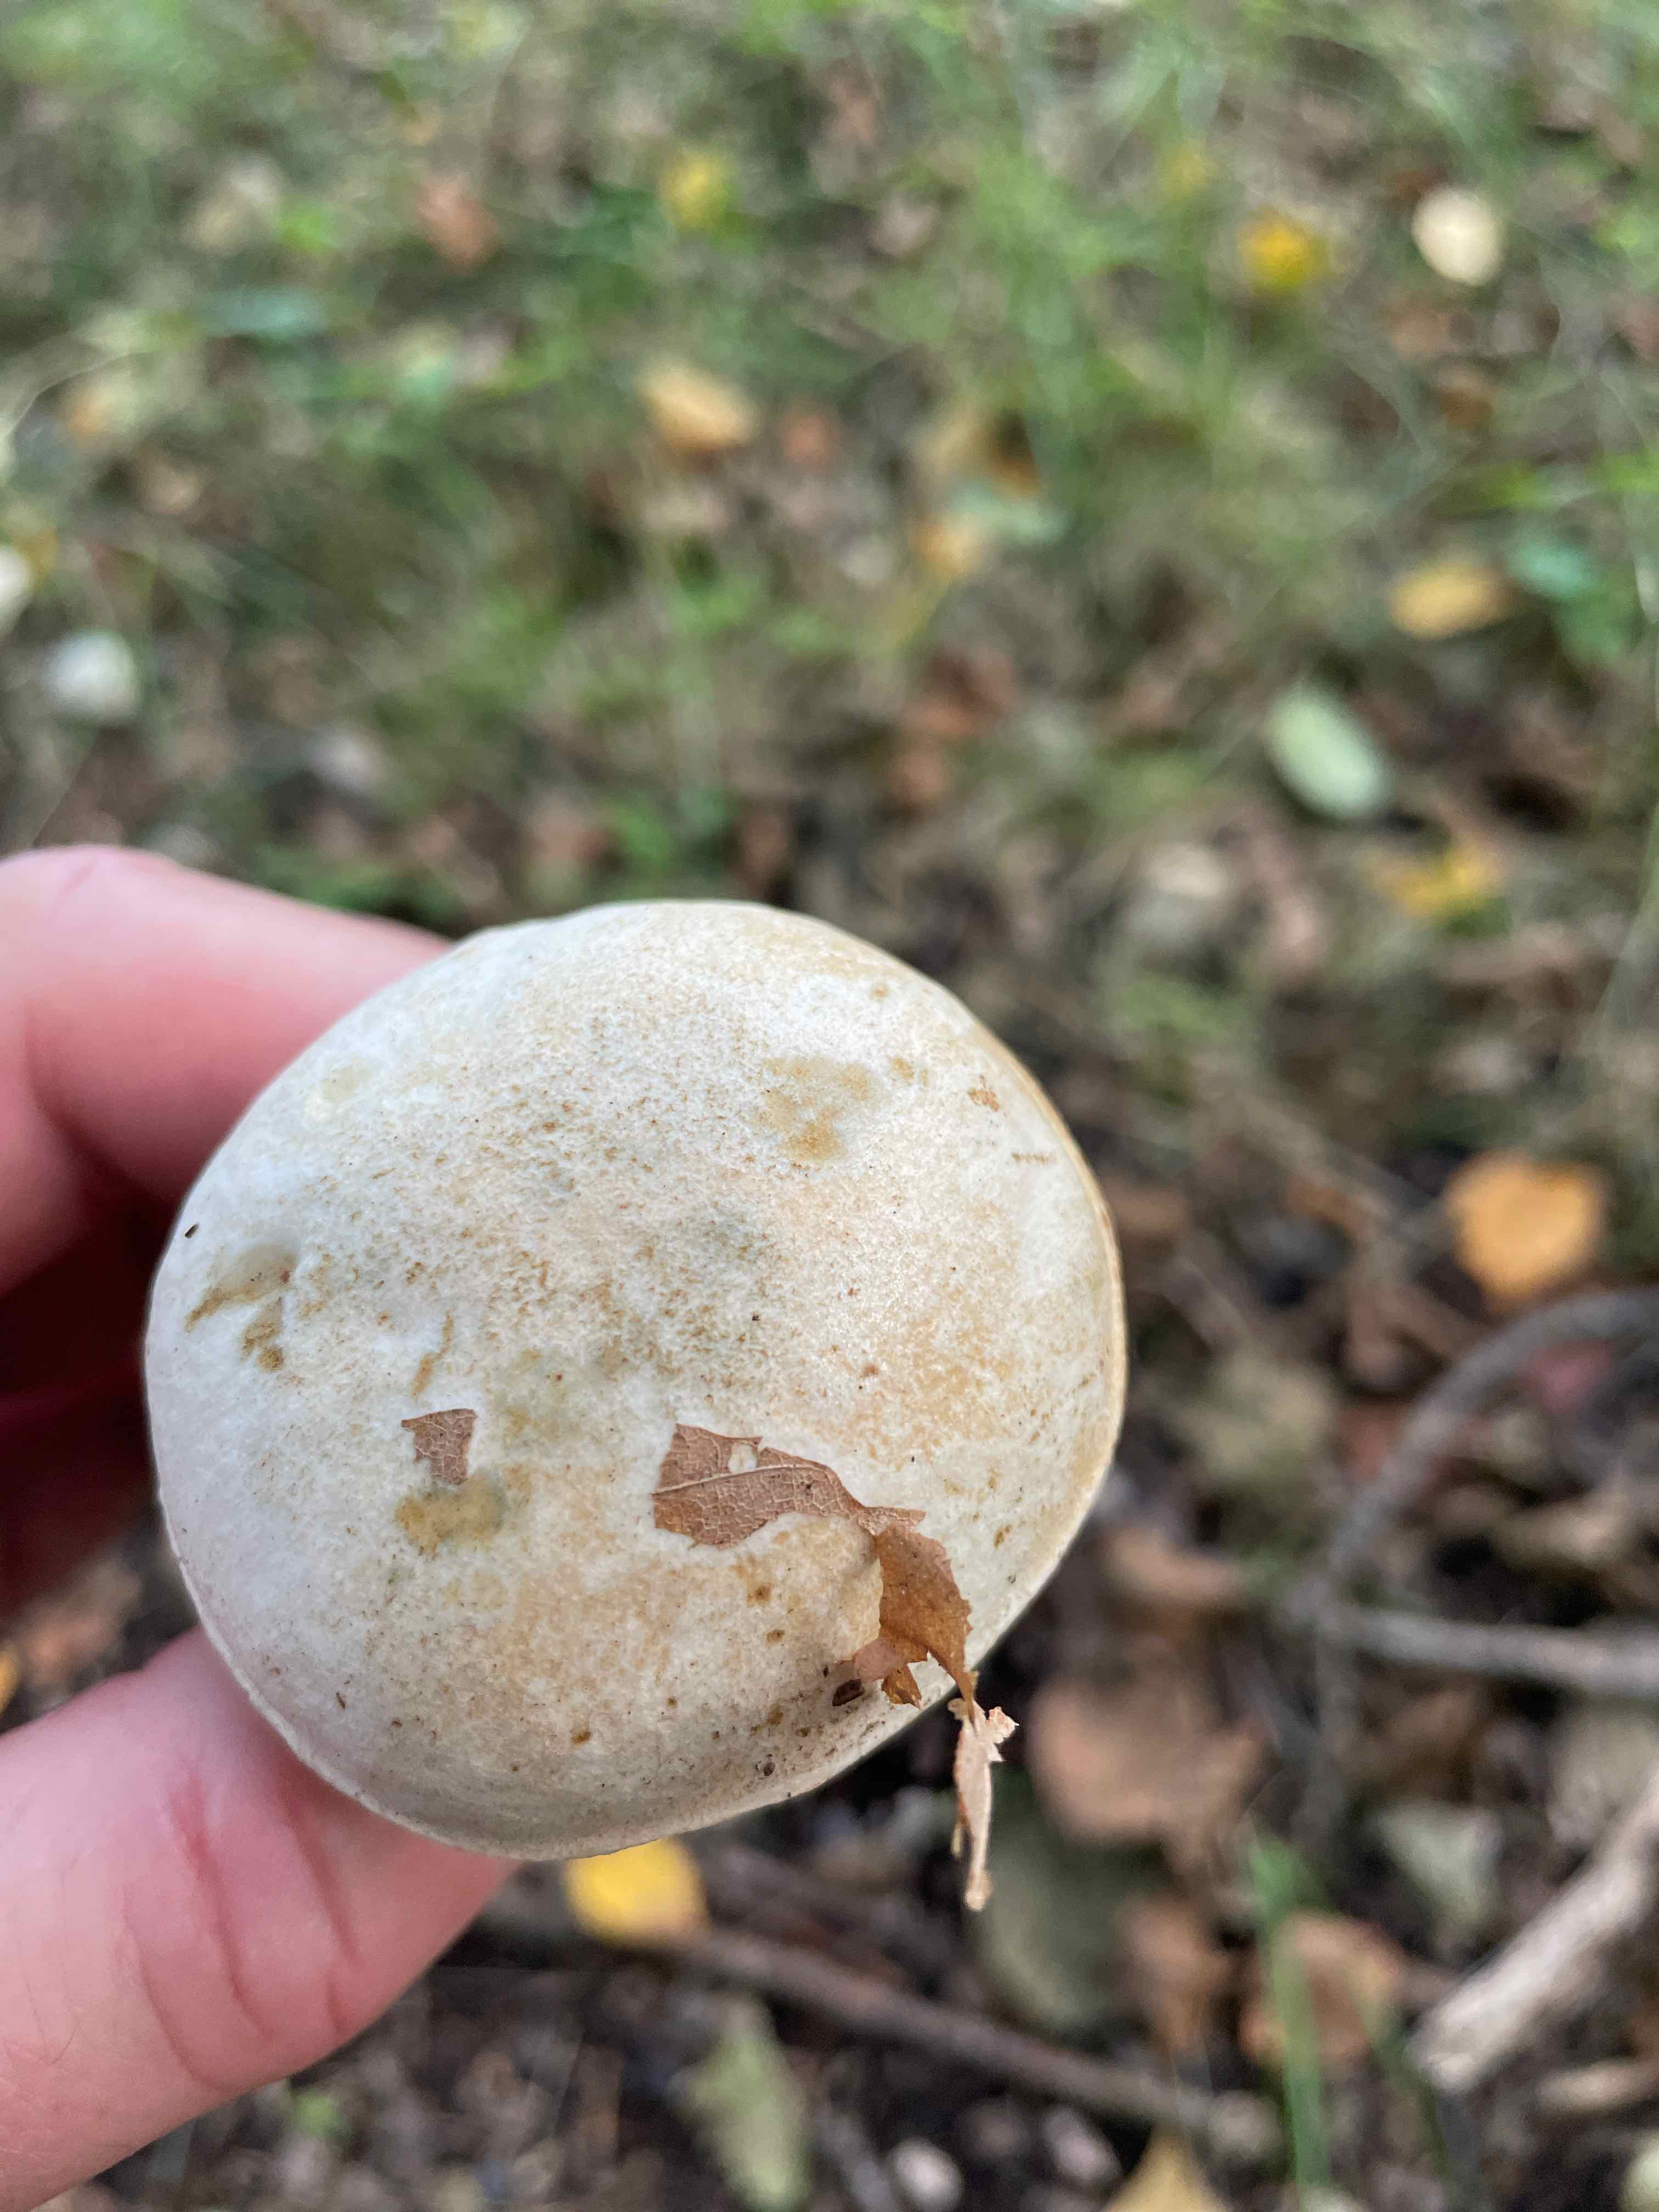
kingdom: Fungi
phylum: Basidiomycota
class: Agaricomycetes
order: Boletales
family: Boletaceae
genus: Leccinum
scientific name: Leccinum scabrum
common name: hvid skælrørhat
